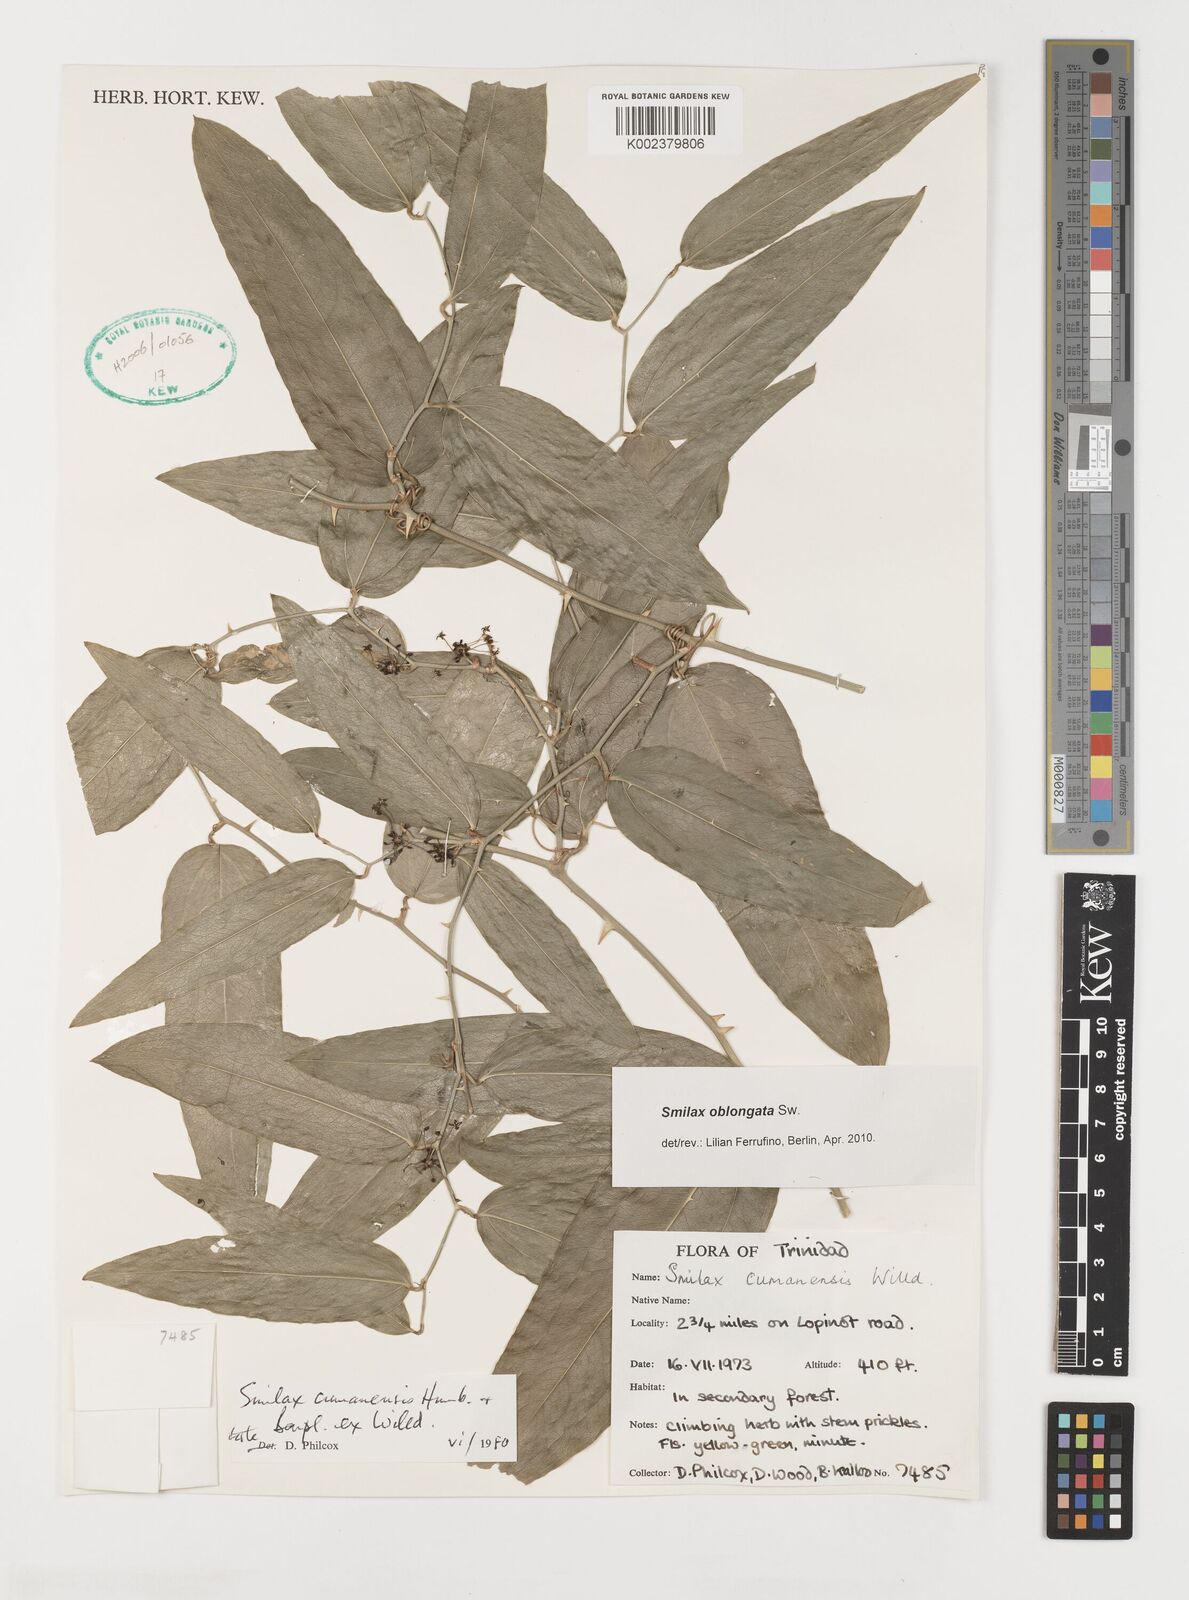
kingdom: Plantae
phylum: Tracheophyta
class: Liliopsida
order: Liliales
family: Smilacaceae
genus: Smilax
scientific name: Smilax oblongata
